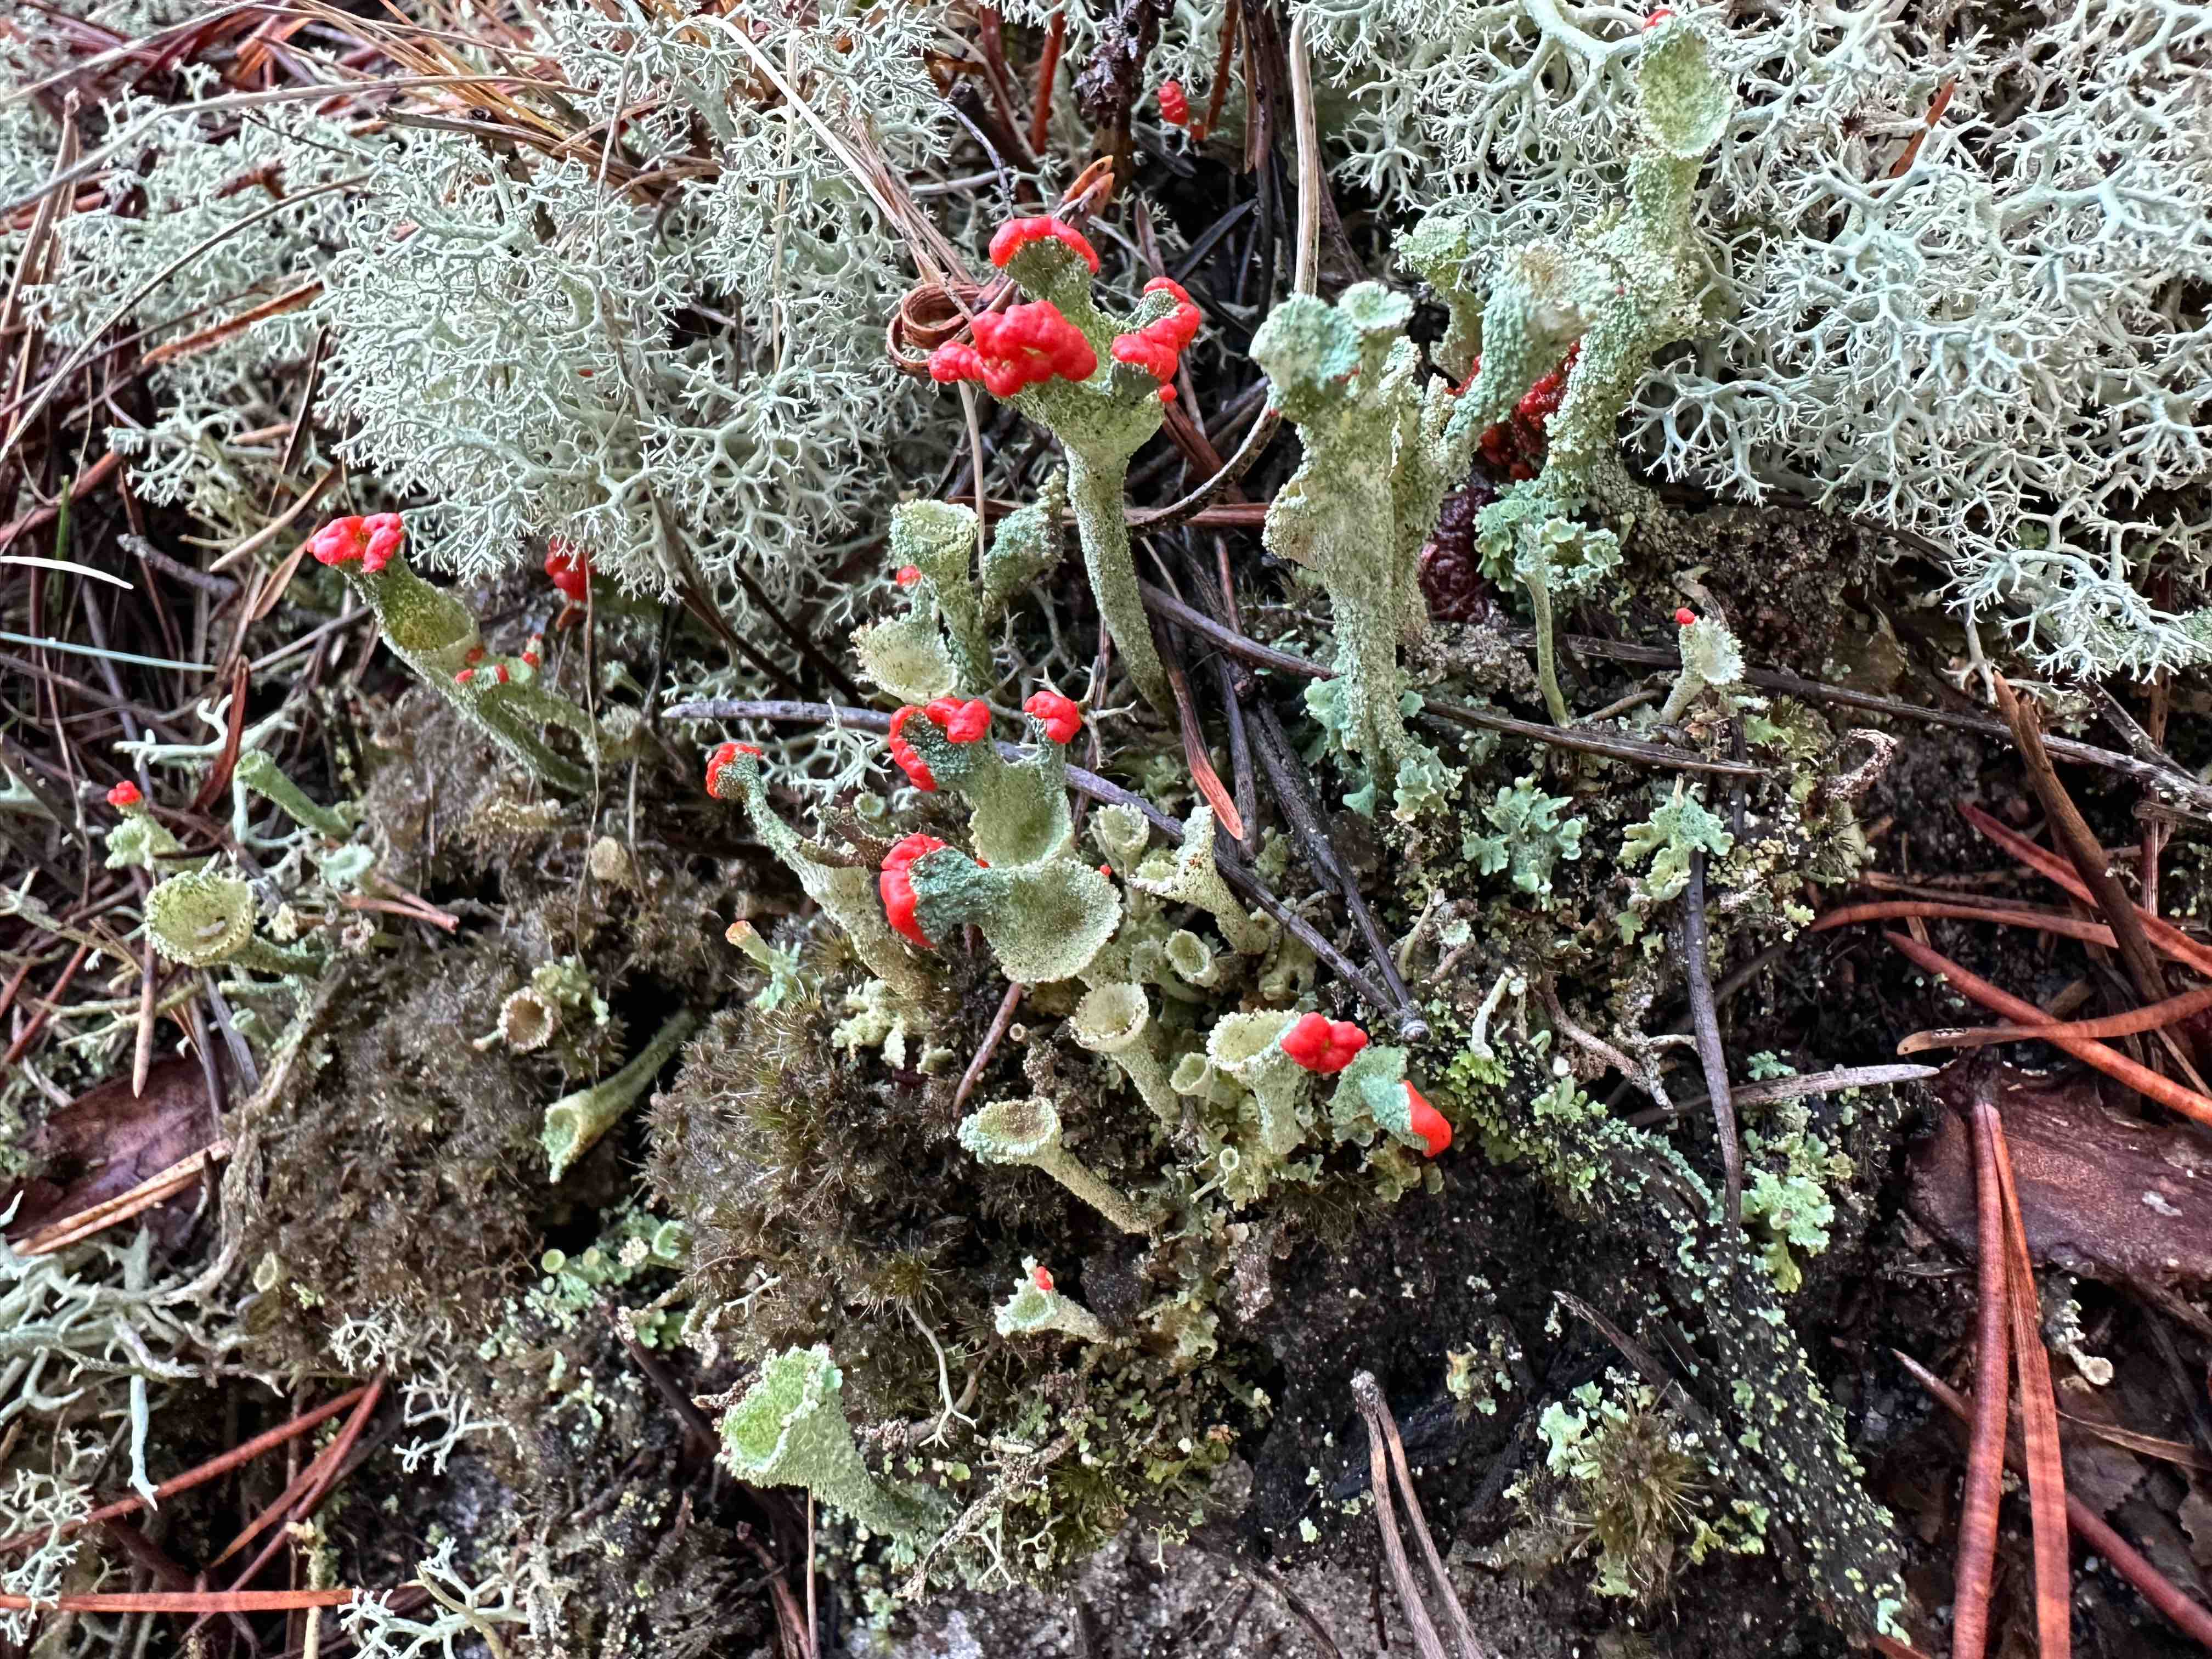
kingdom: Fungi
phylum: Ascomycota
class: Lecanoromycetes
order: Lecanorales
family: Cladoniaceae
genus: Cladonia
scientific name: Cladonia diversa
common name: rød bægerlav
